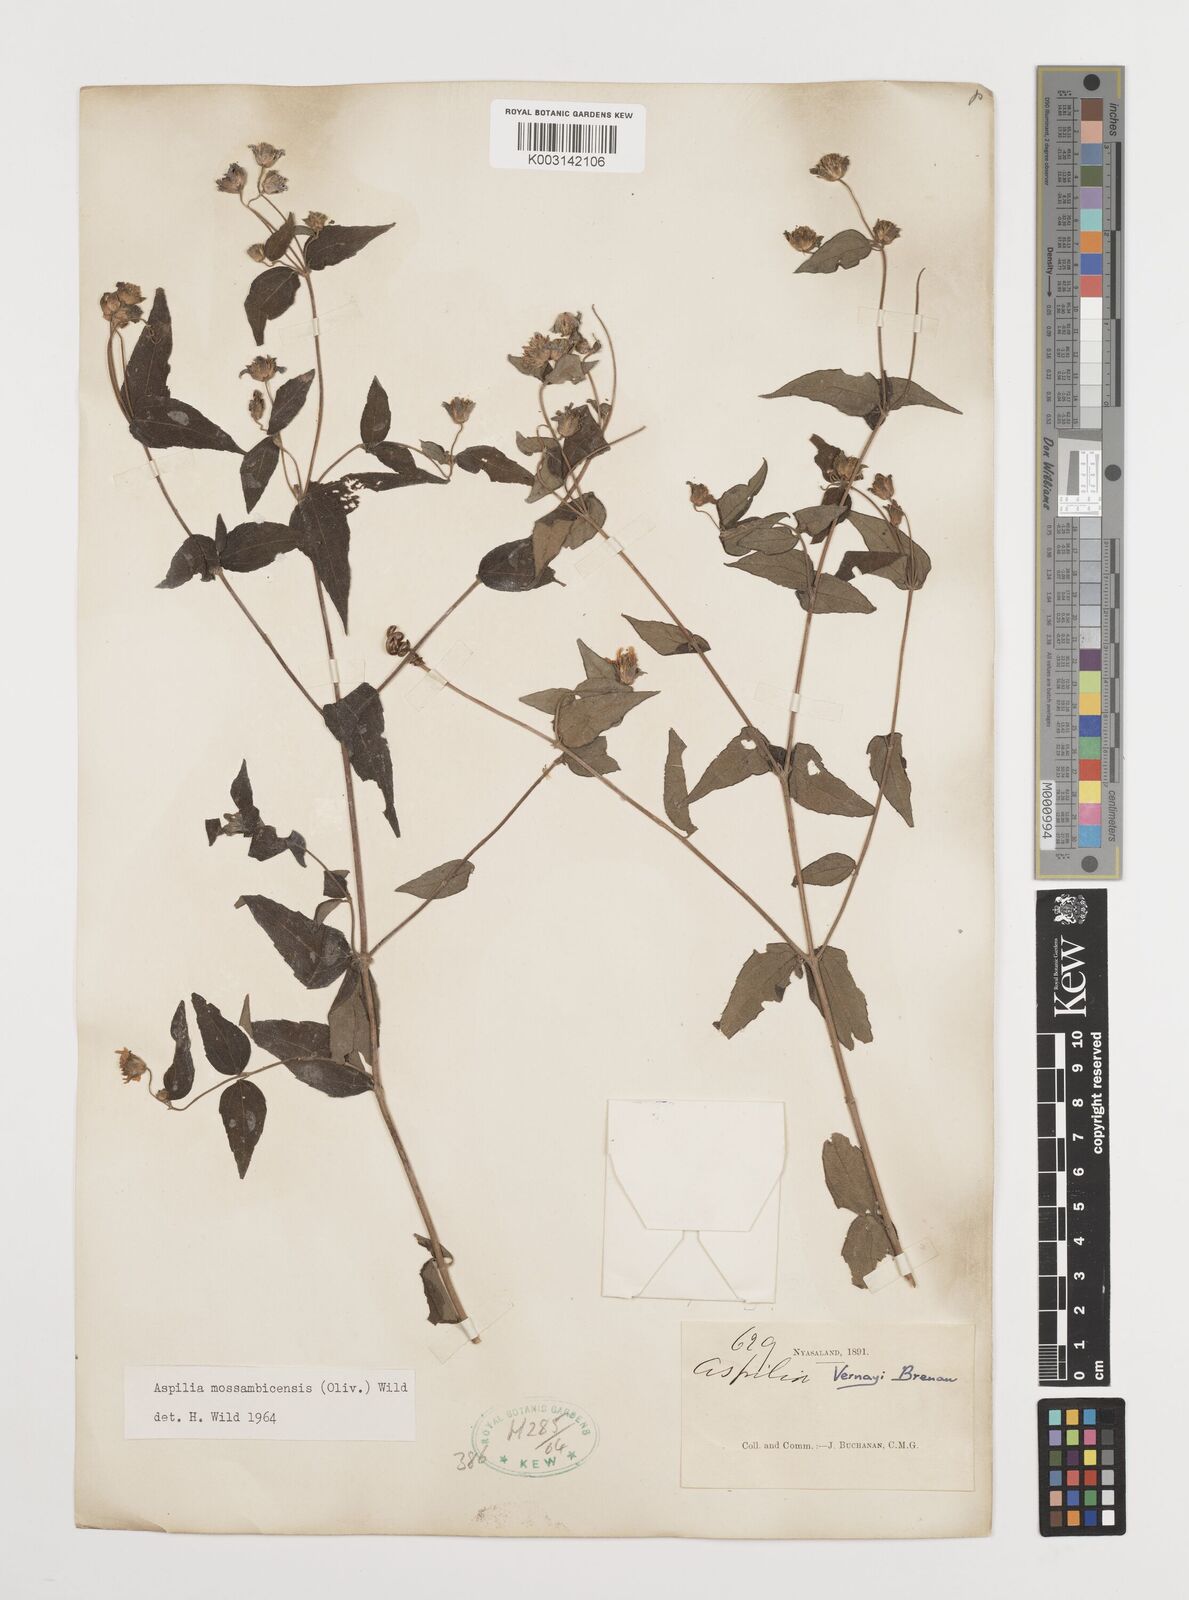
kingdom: Plantae
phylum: Tracheophyta
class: Magnoliopsida
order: Asterales
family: Asteraceae
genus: Aspilia
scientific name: Aspilia mossambicensis
